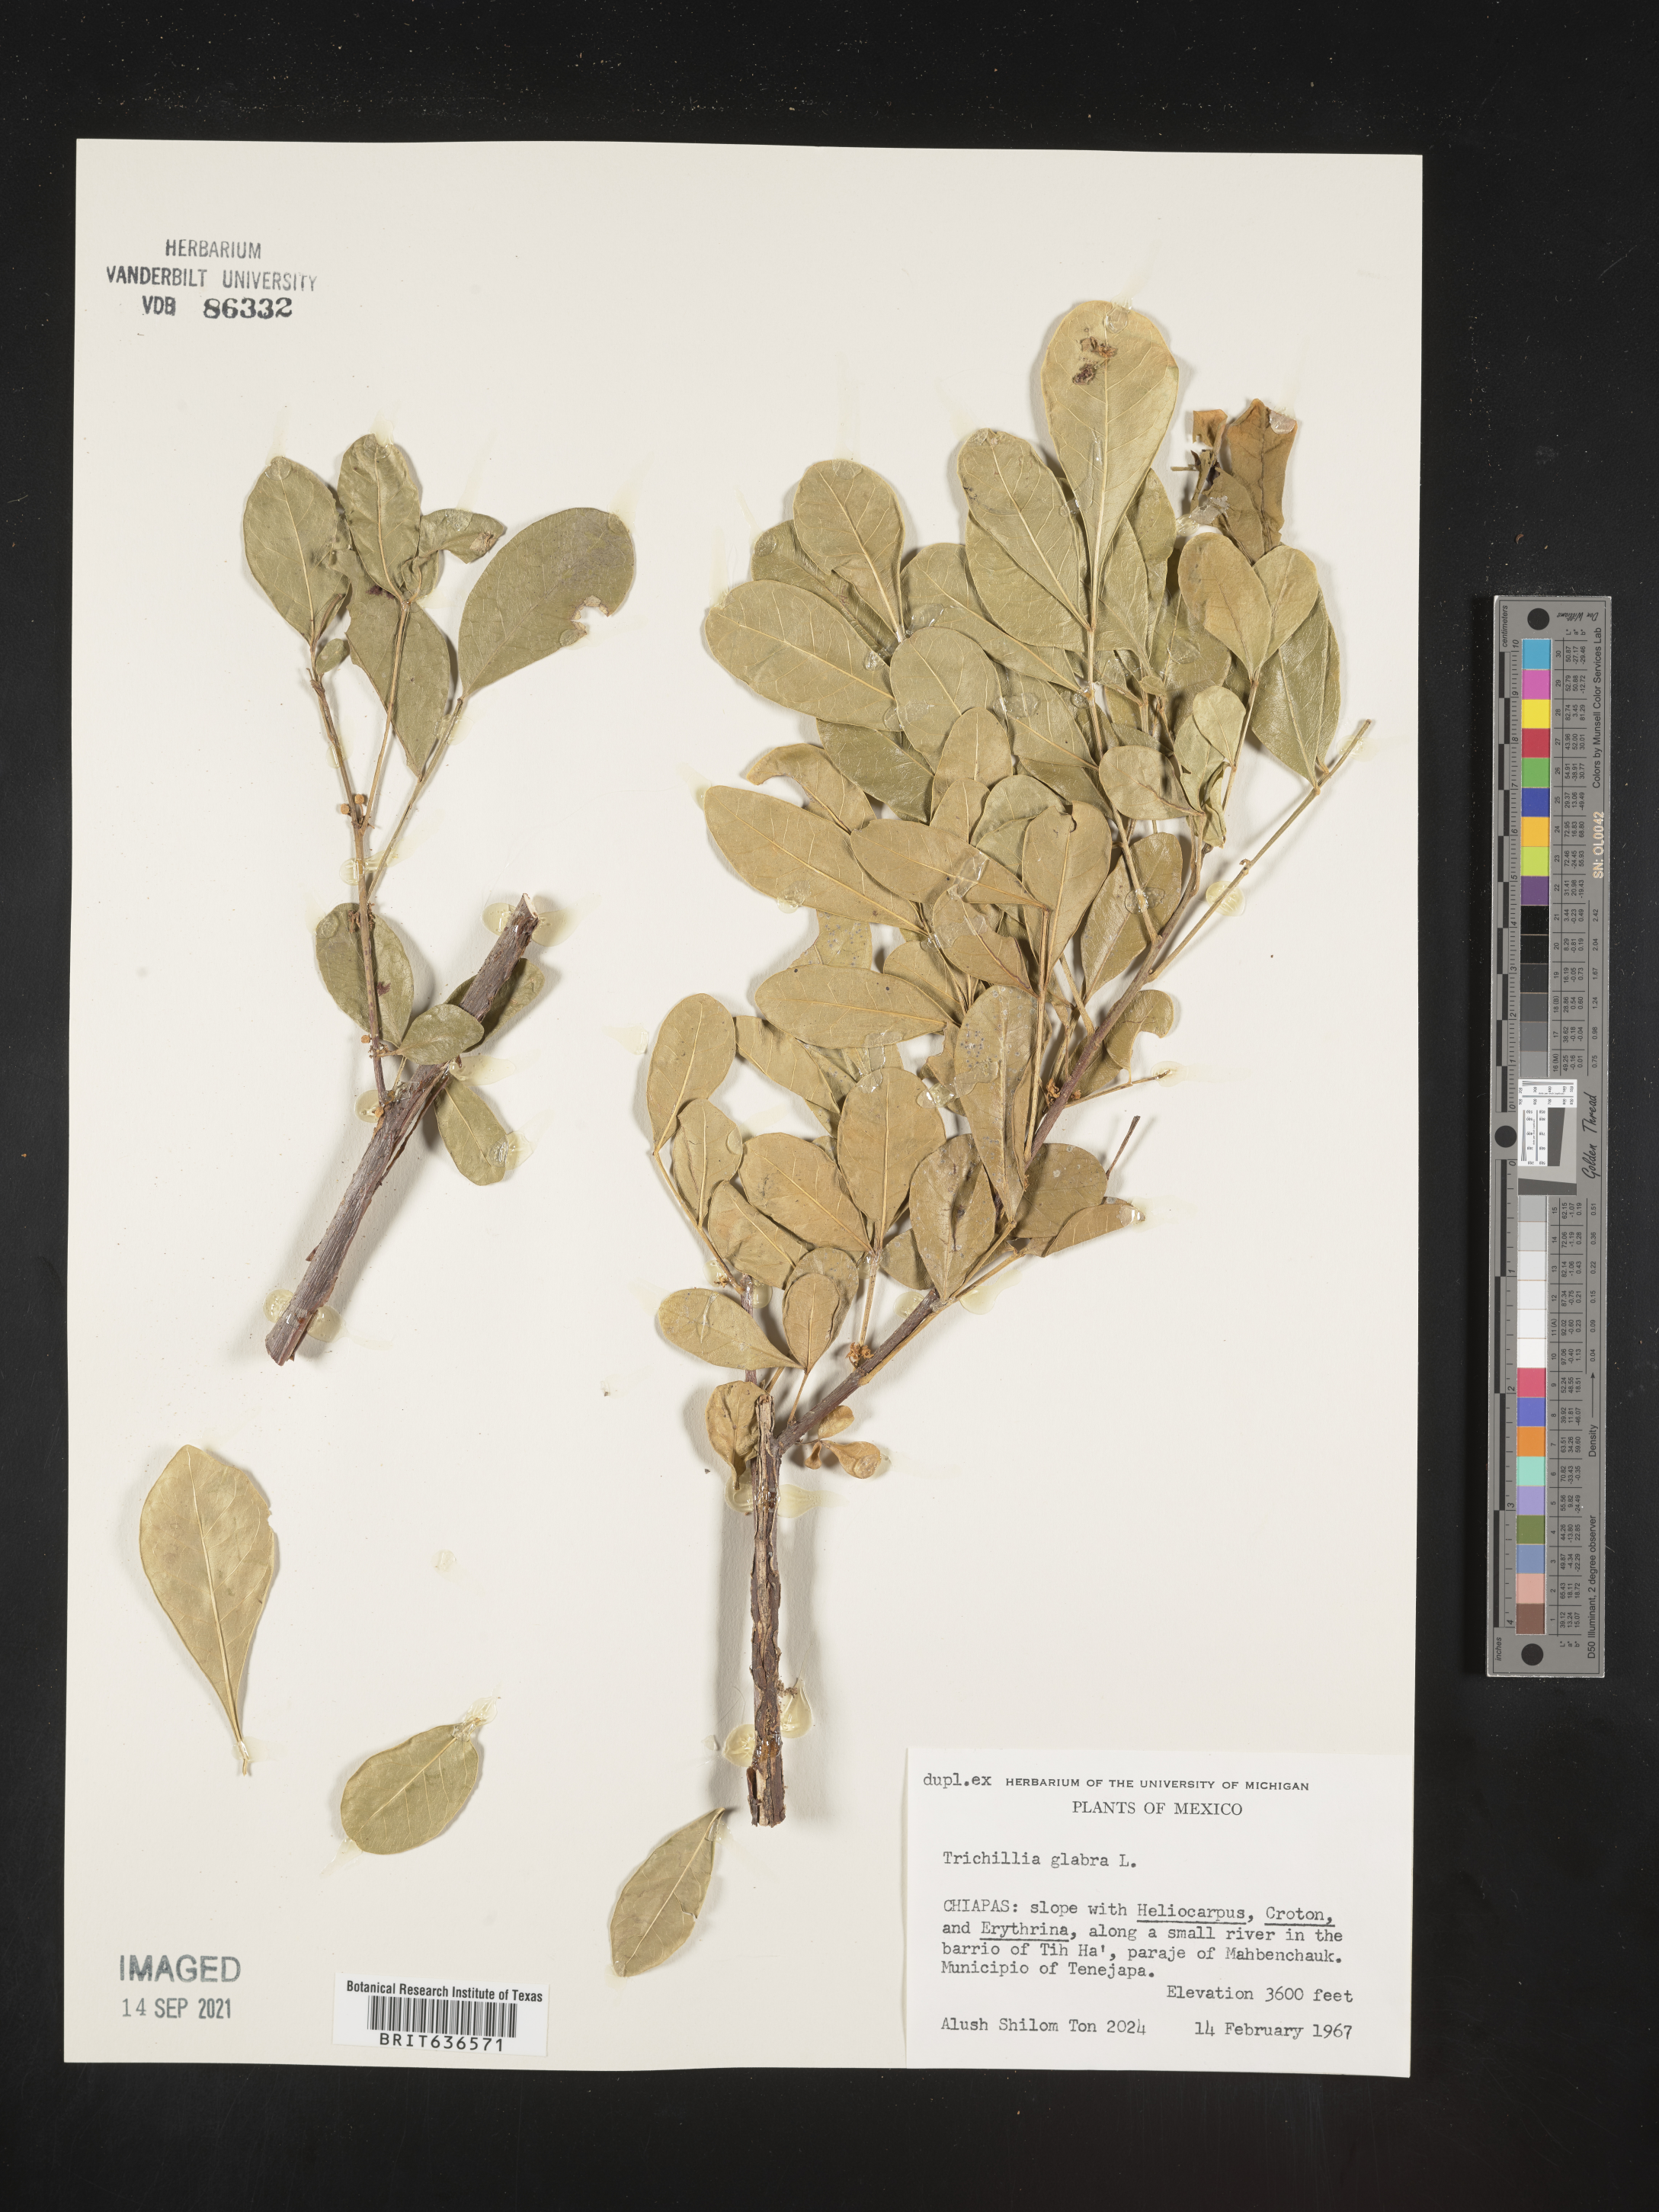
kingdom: Plantae
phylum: Tracheophyta
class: Magnoliopsida
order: Sapindales
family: Meliaceae
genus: Trichilia
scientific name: Trichilia
